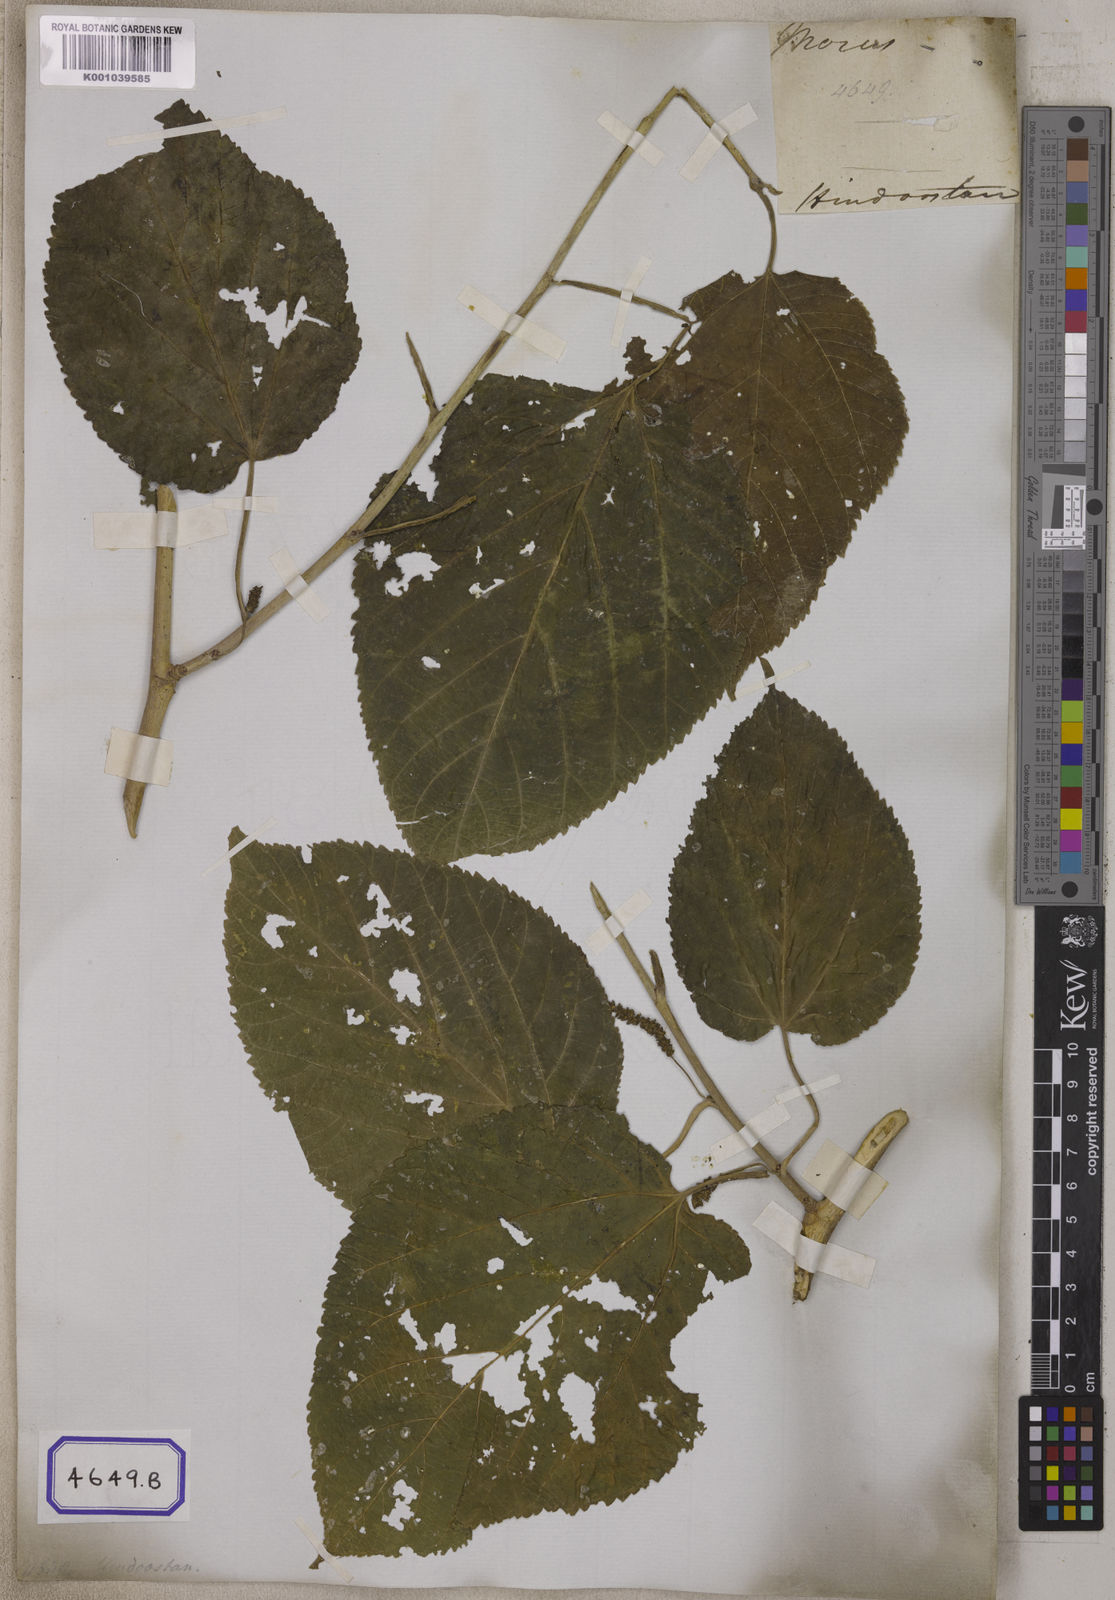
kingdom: Plantae
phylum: Tracheophyta
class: Magnoliopsida
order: Rosales
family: Moraceae
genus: Morus
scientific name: Morus
